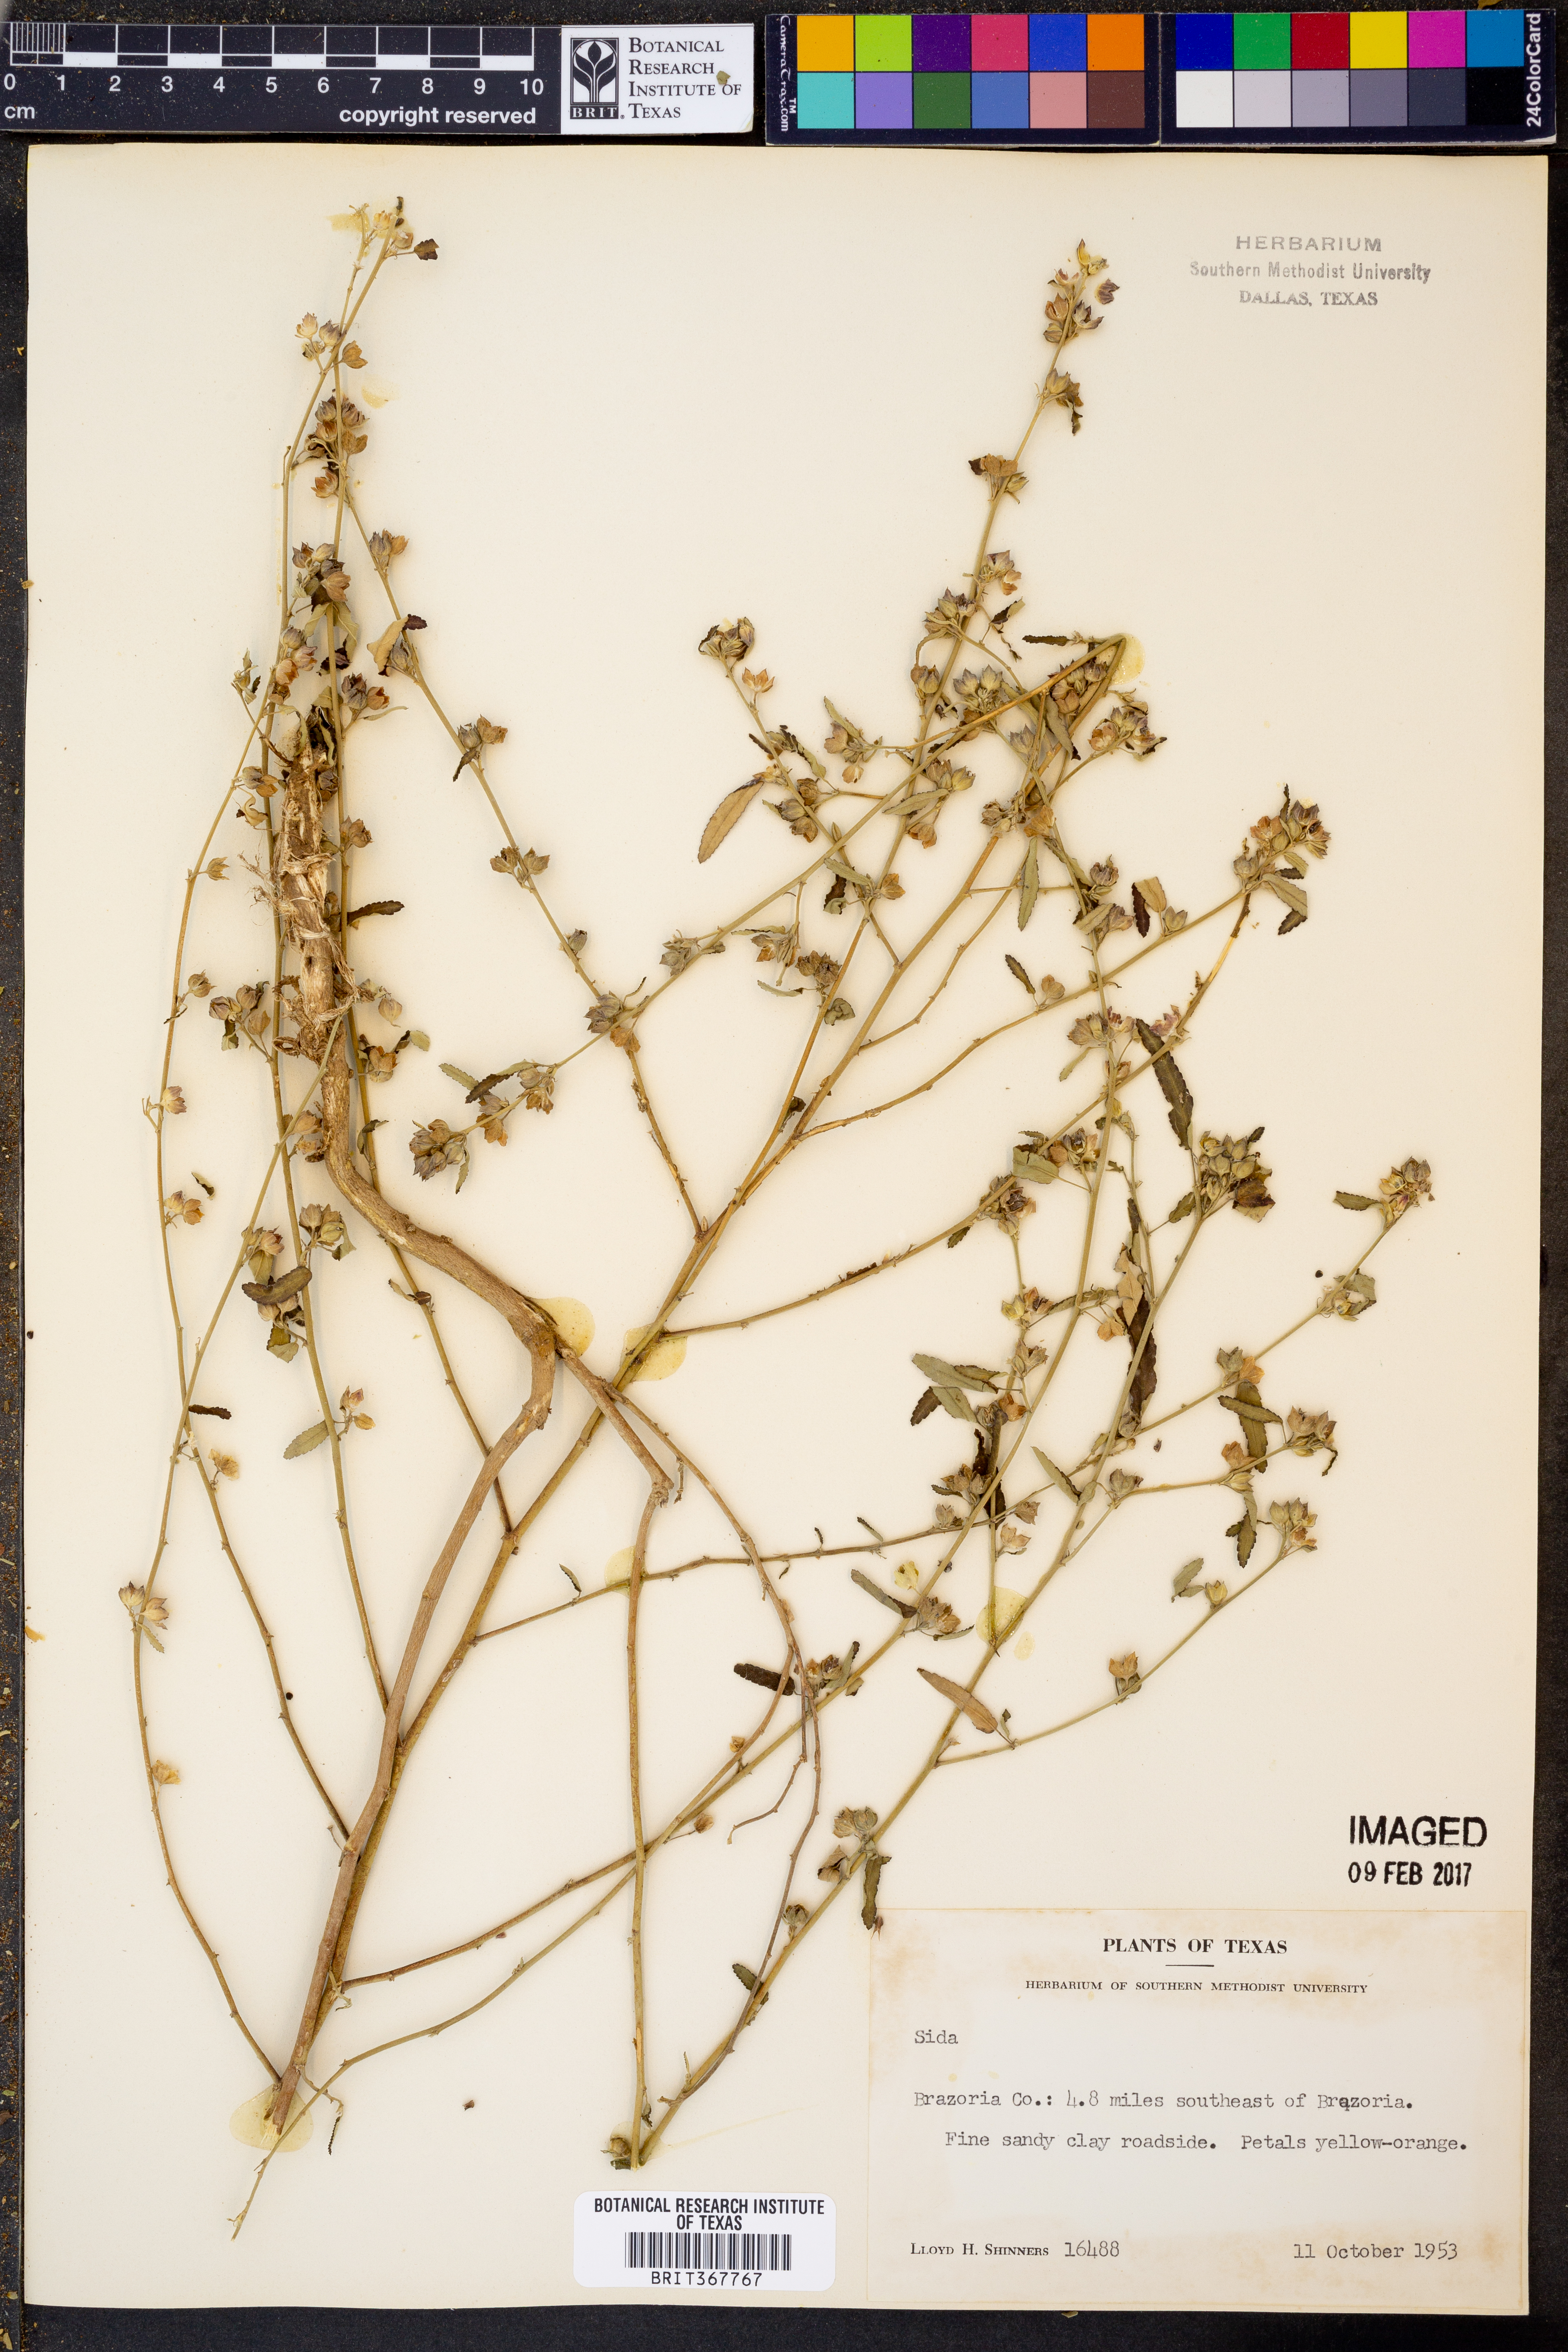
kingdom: Plantae
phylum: Tracheophyta
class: Magnoliopsida
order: Malvales
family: Malvaceae
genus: Sida
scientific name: Sida
